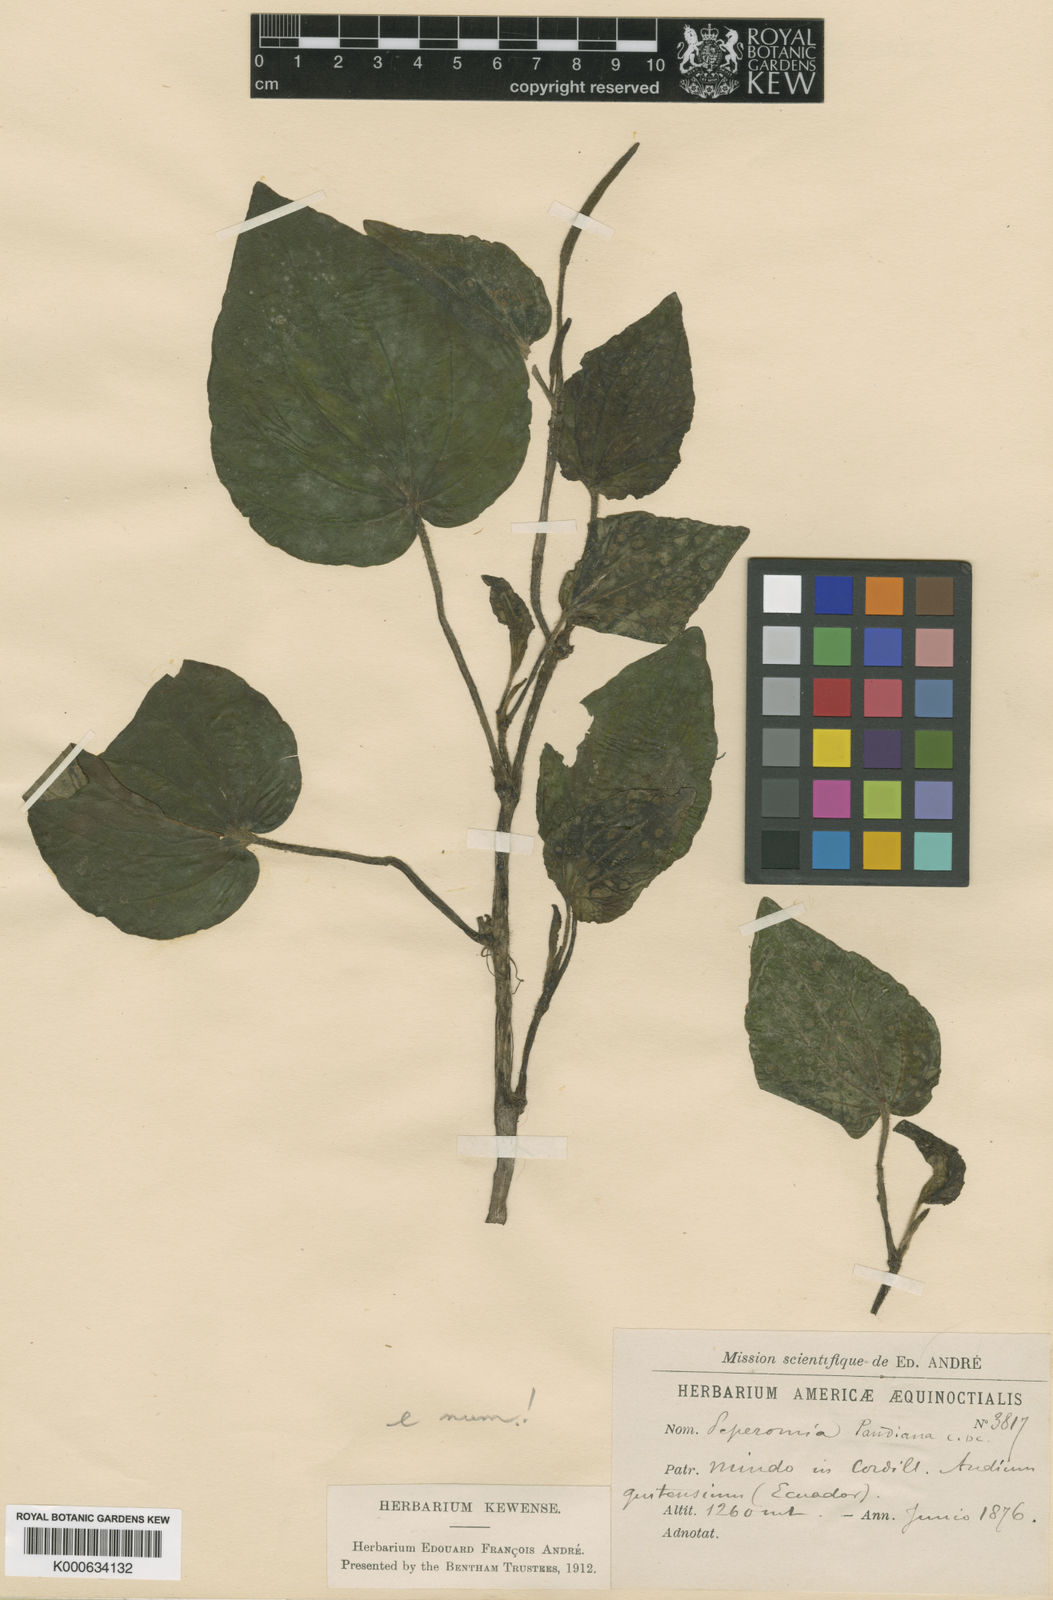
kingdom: Plantae
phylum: Tracheophyta
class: Magnoliopsida
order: Piperales
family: Piperaceae
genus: Peperomia
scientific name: Peperomia pandiana
